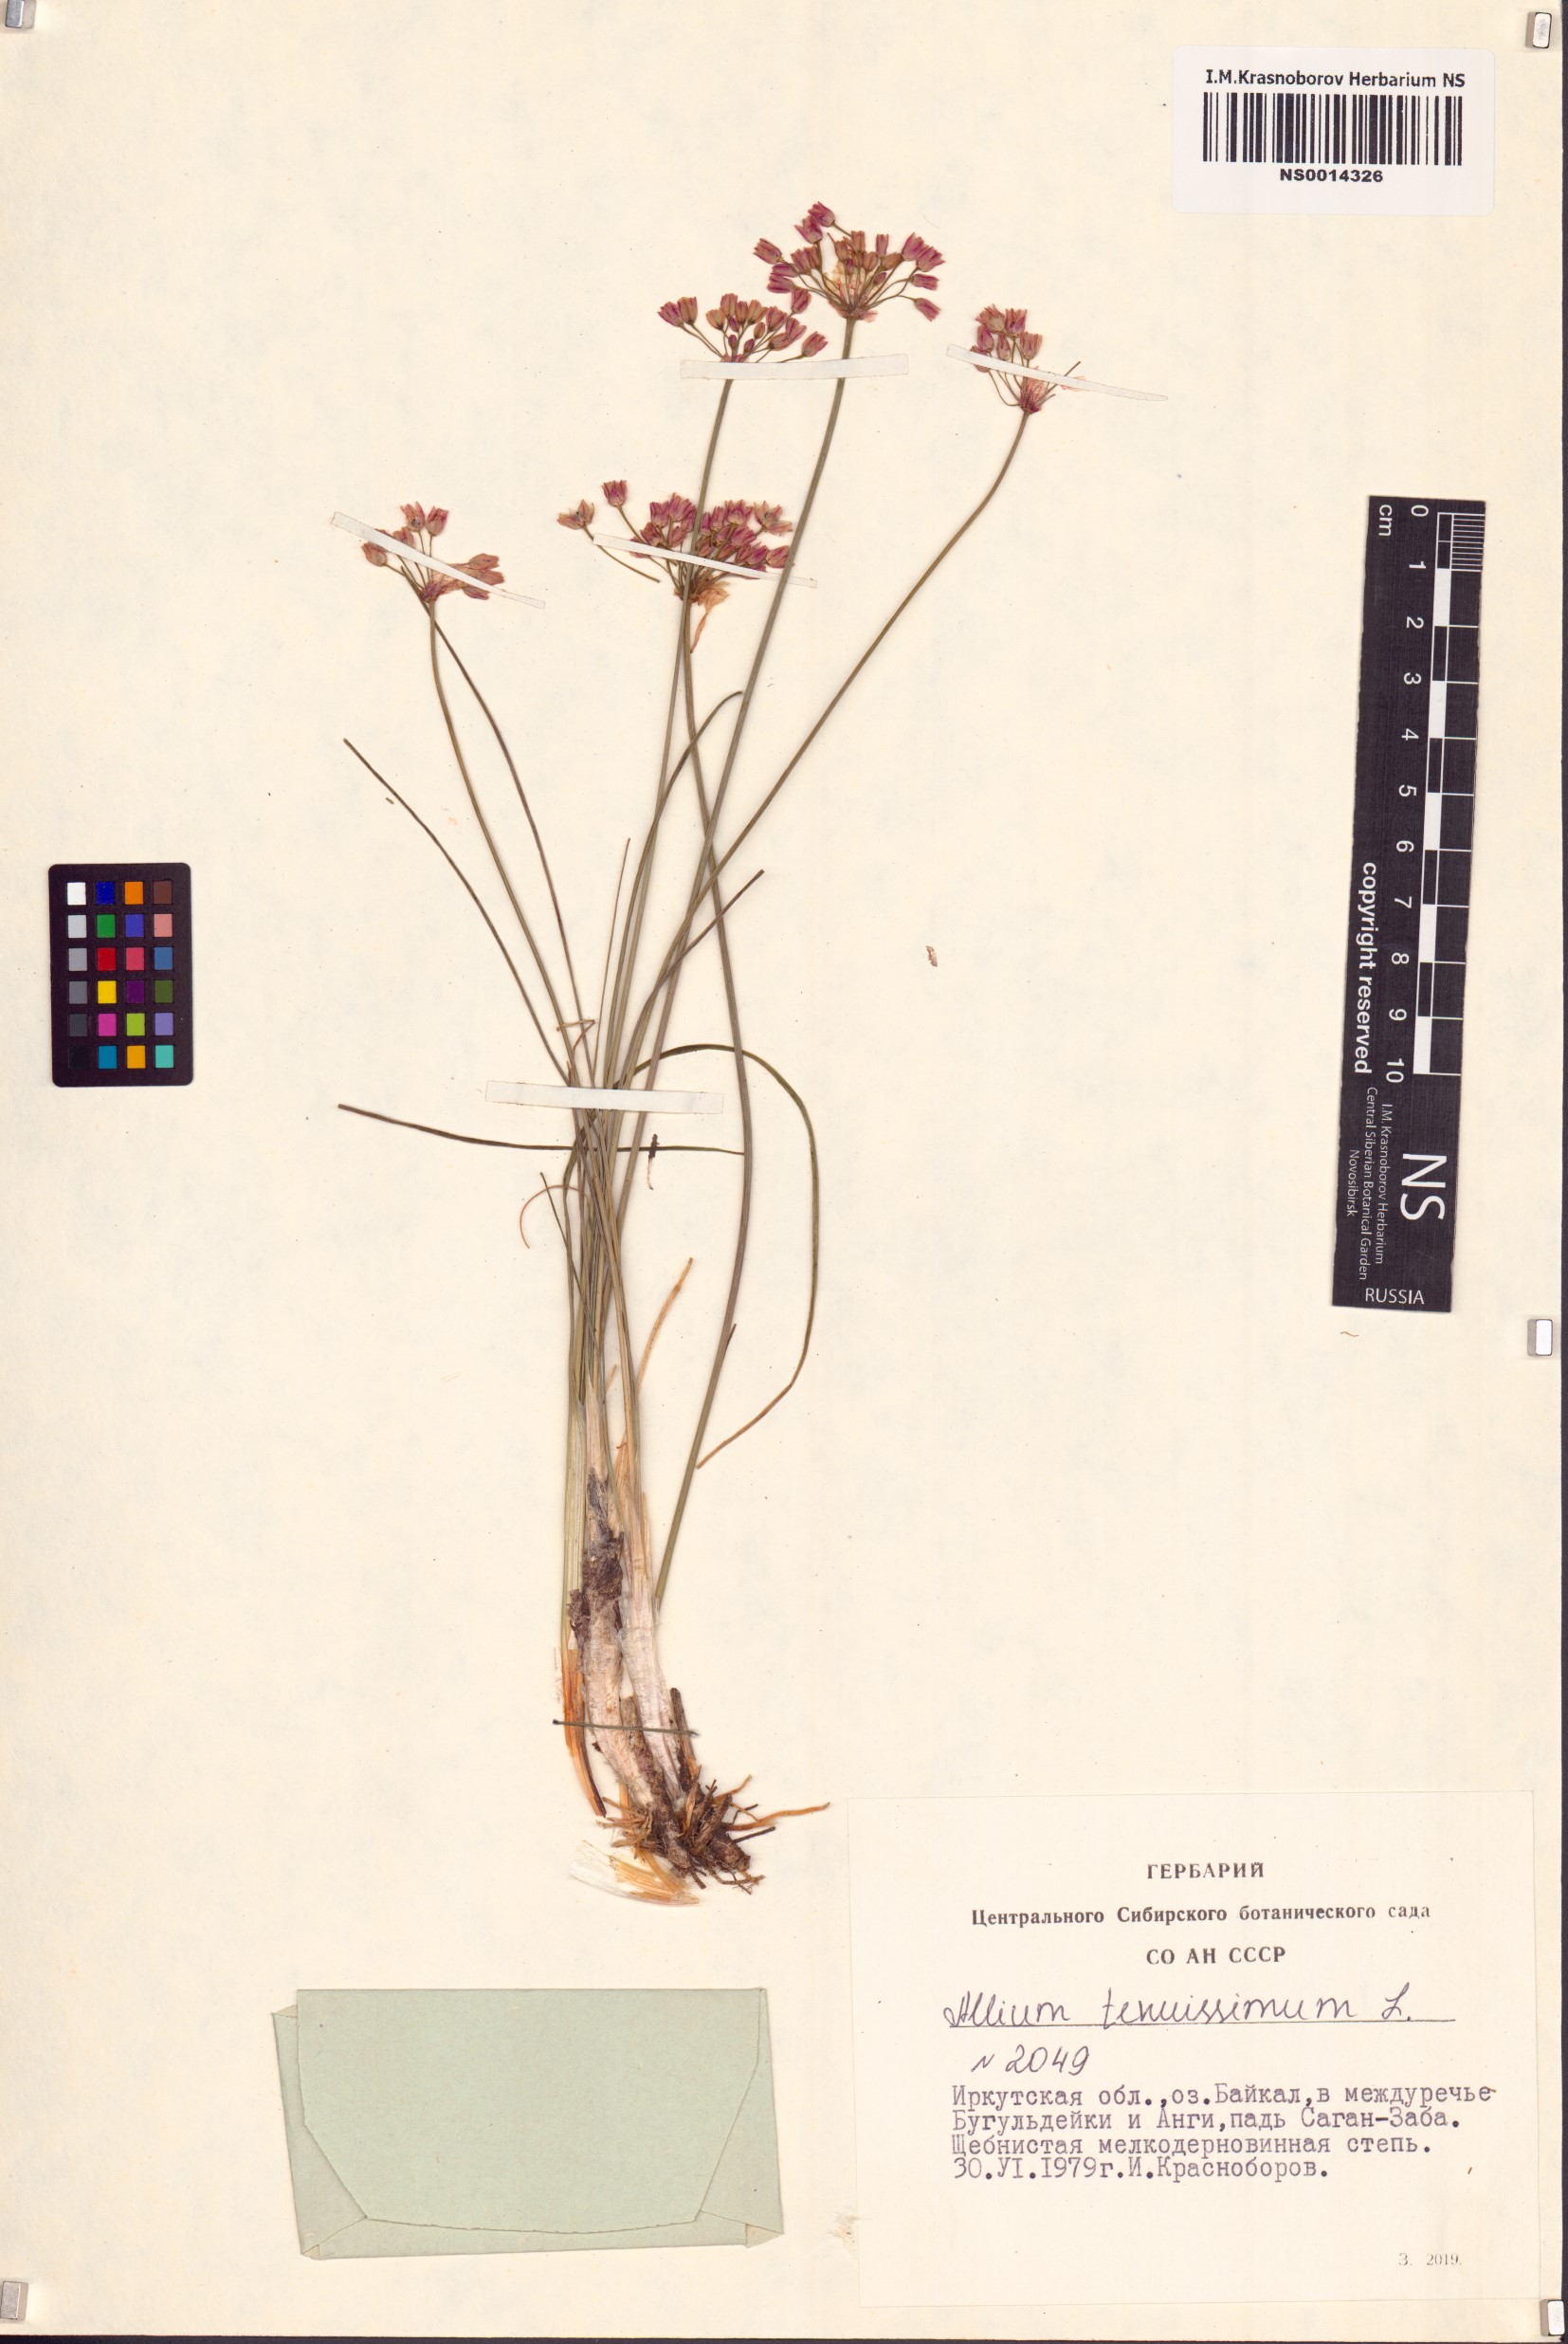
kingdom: Plantae
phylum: Tracheophyta
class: Liliopsida
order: Asparagales
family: Amaryllidaceae
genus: Allium
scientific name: Allium tenuissimum
